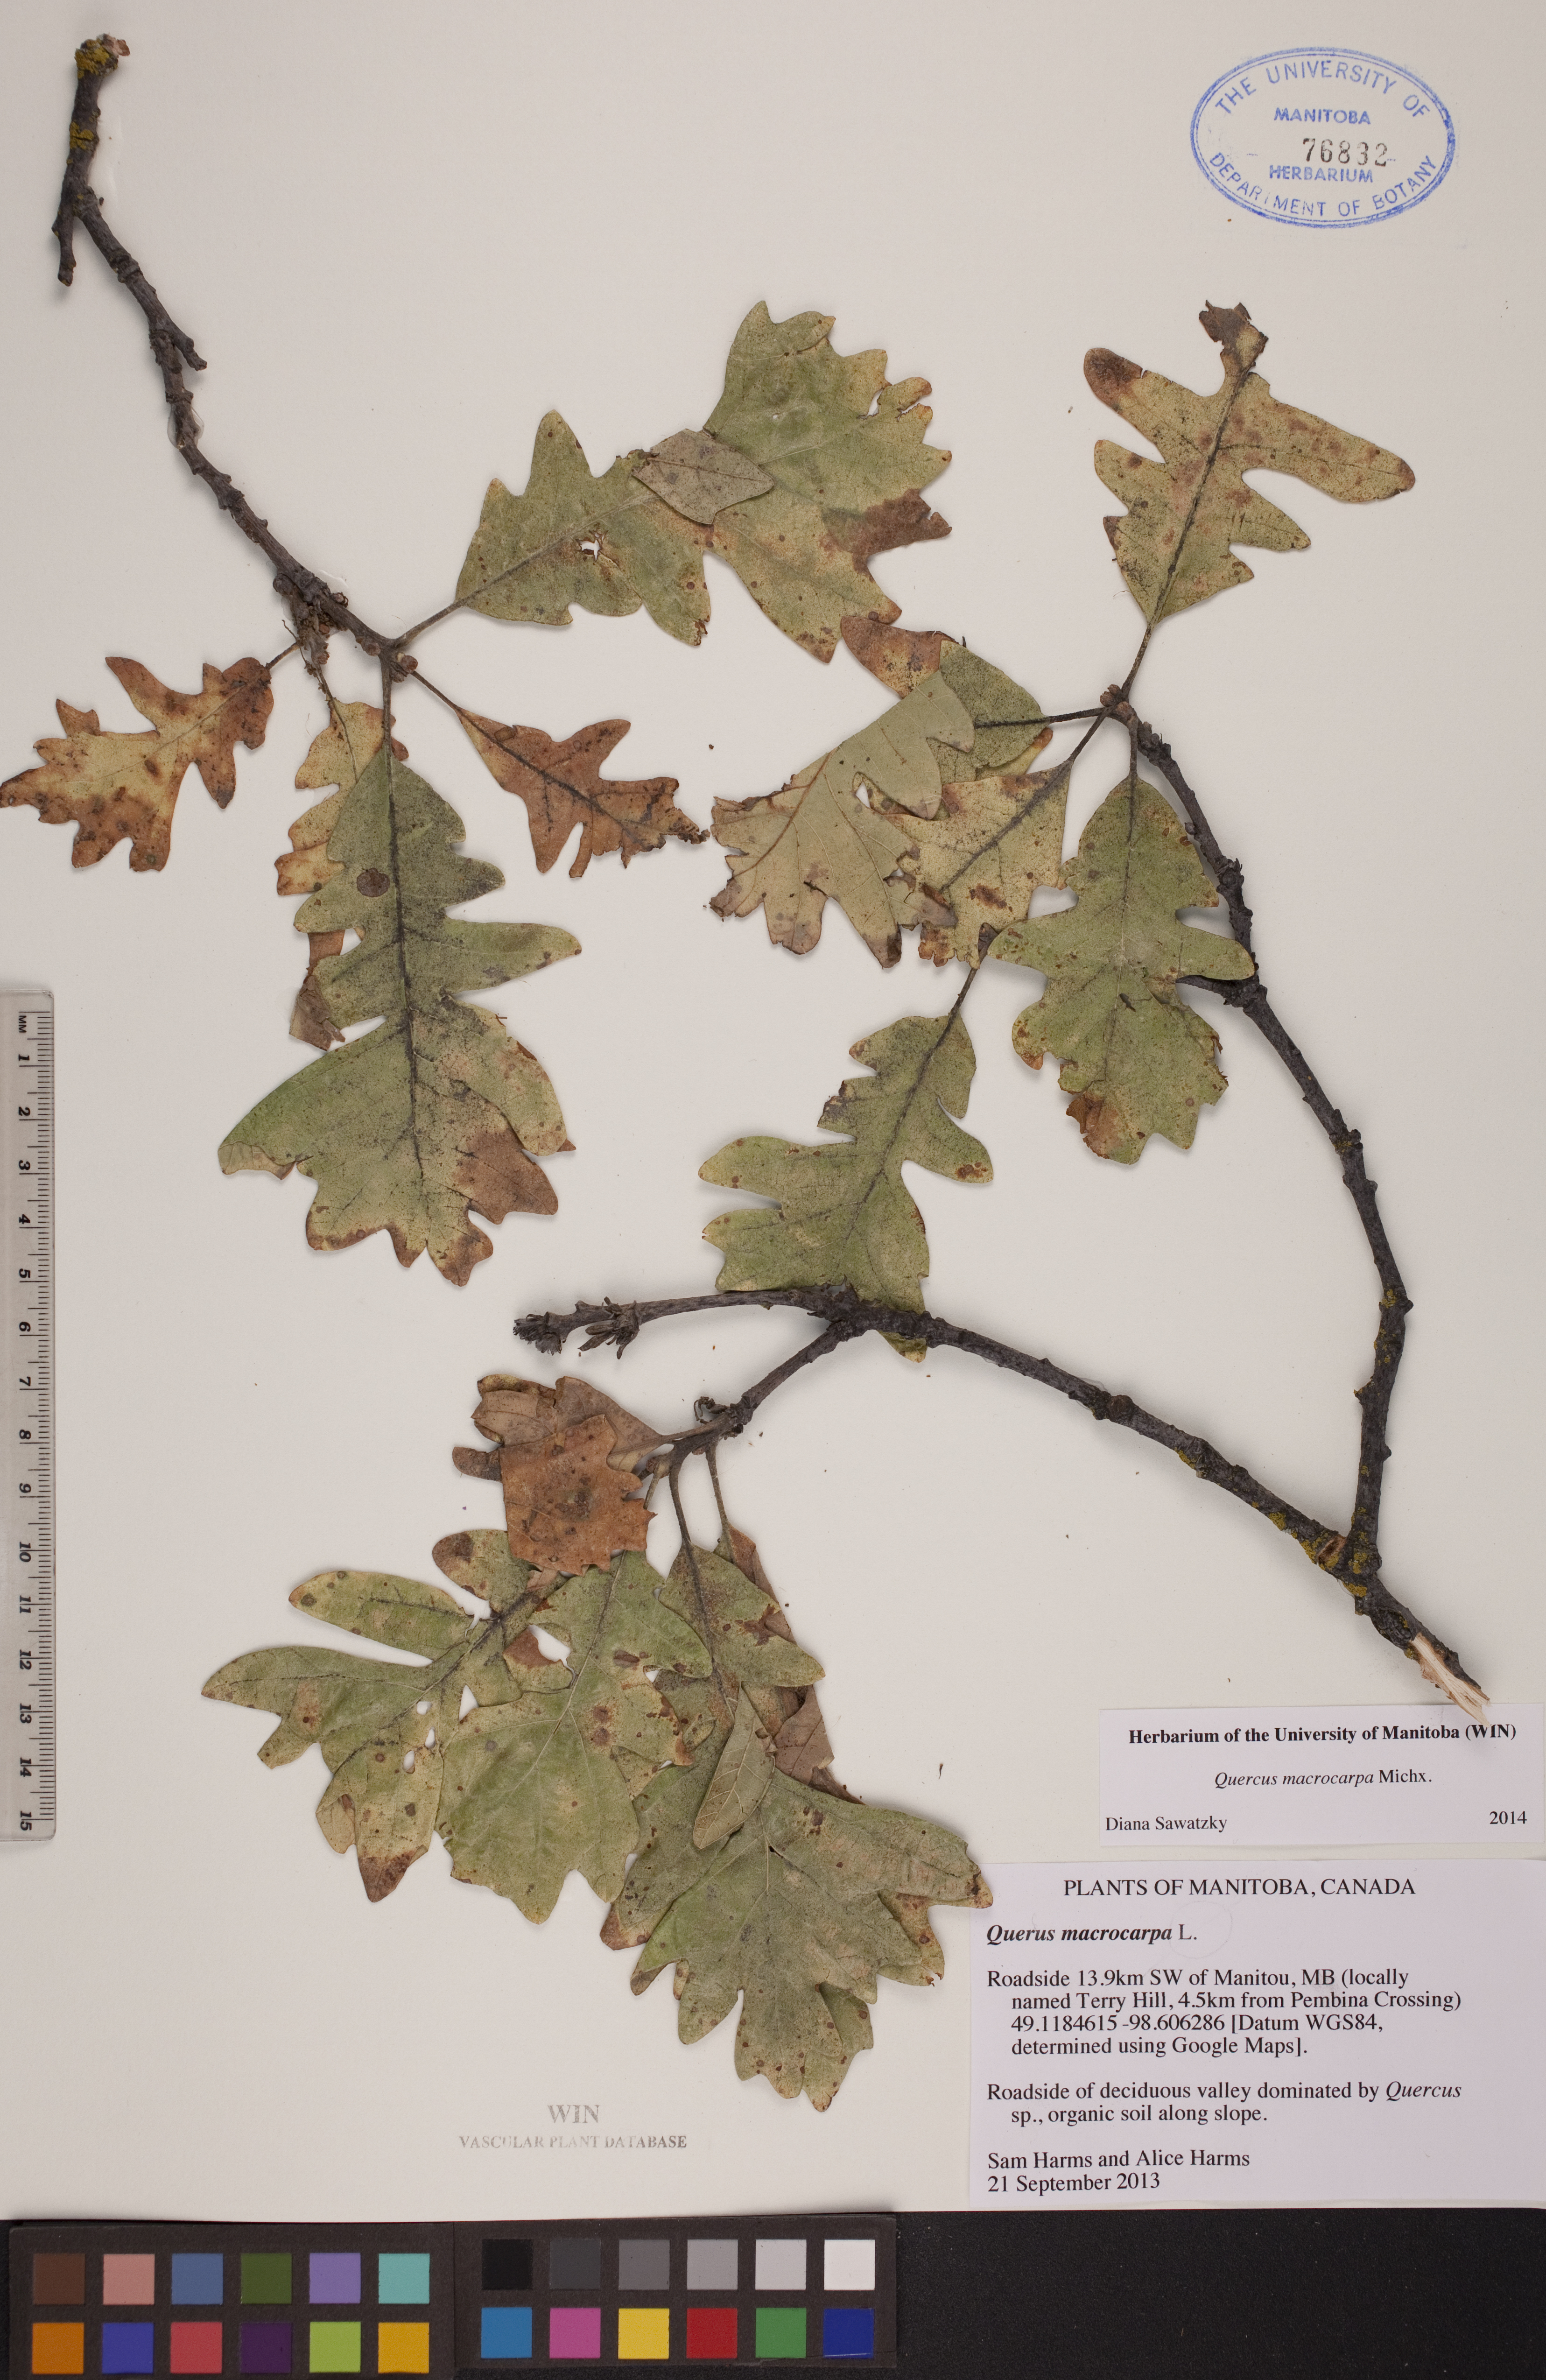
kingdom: Plantae
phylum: Tracheophyta
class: Magnoliopsida
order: Fagales
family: Fagaceae
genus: Quercus
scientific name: Quercus macrocarpa
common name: Bur oak
